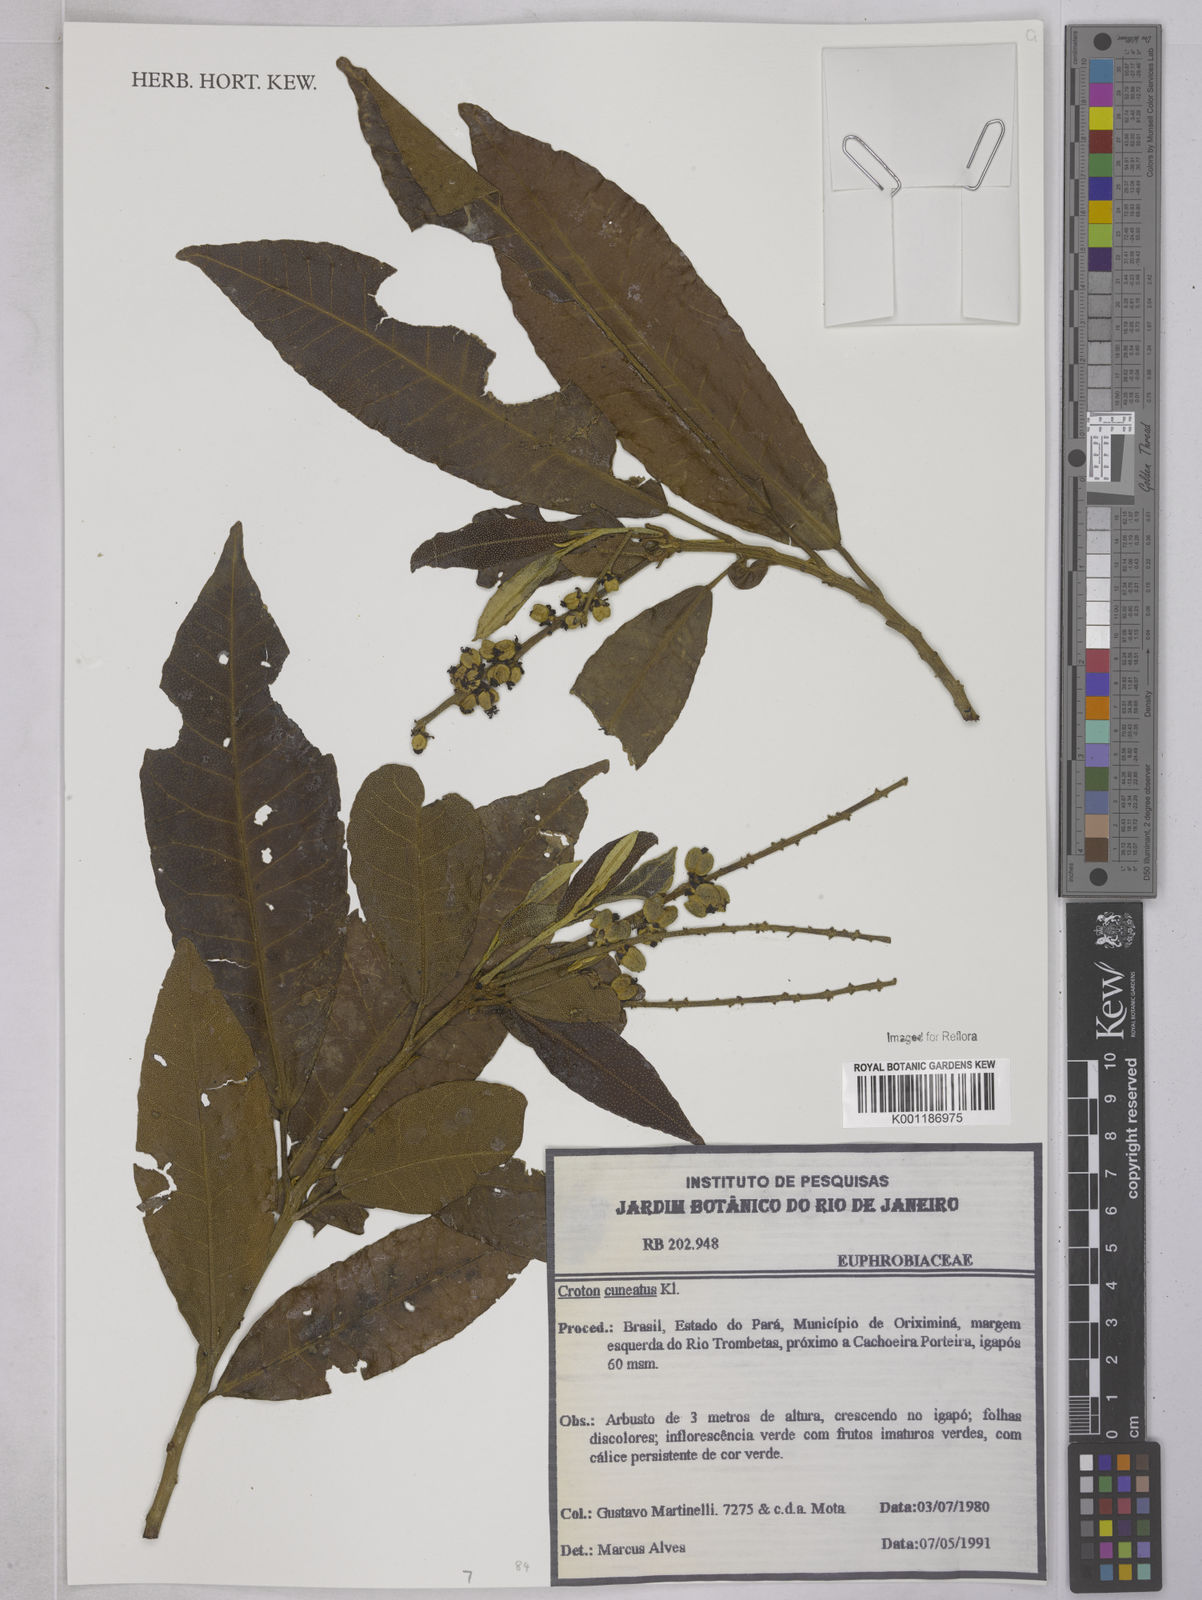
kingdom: Plantae
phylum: Tracheophyta
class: Magnoliopsida
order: Malpighiales
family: Euphorbiaceae
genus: Croton
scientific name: Croton
